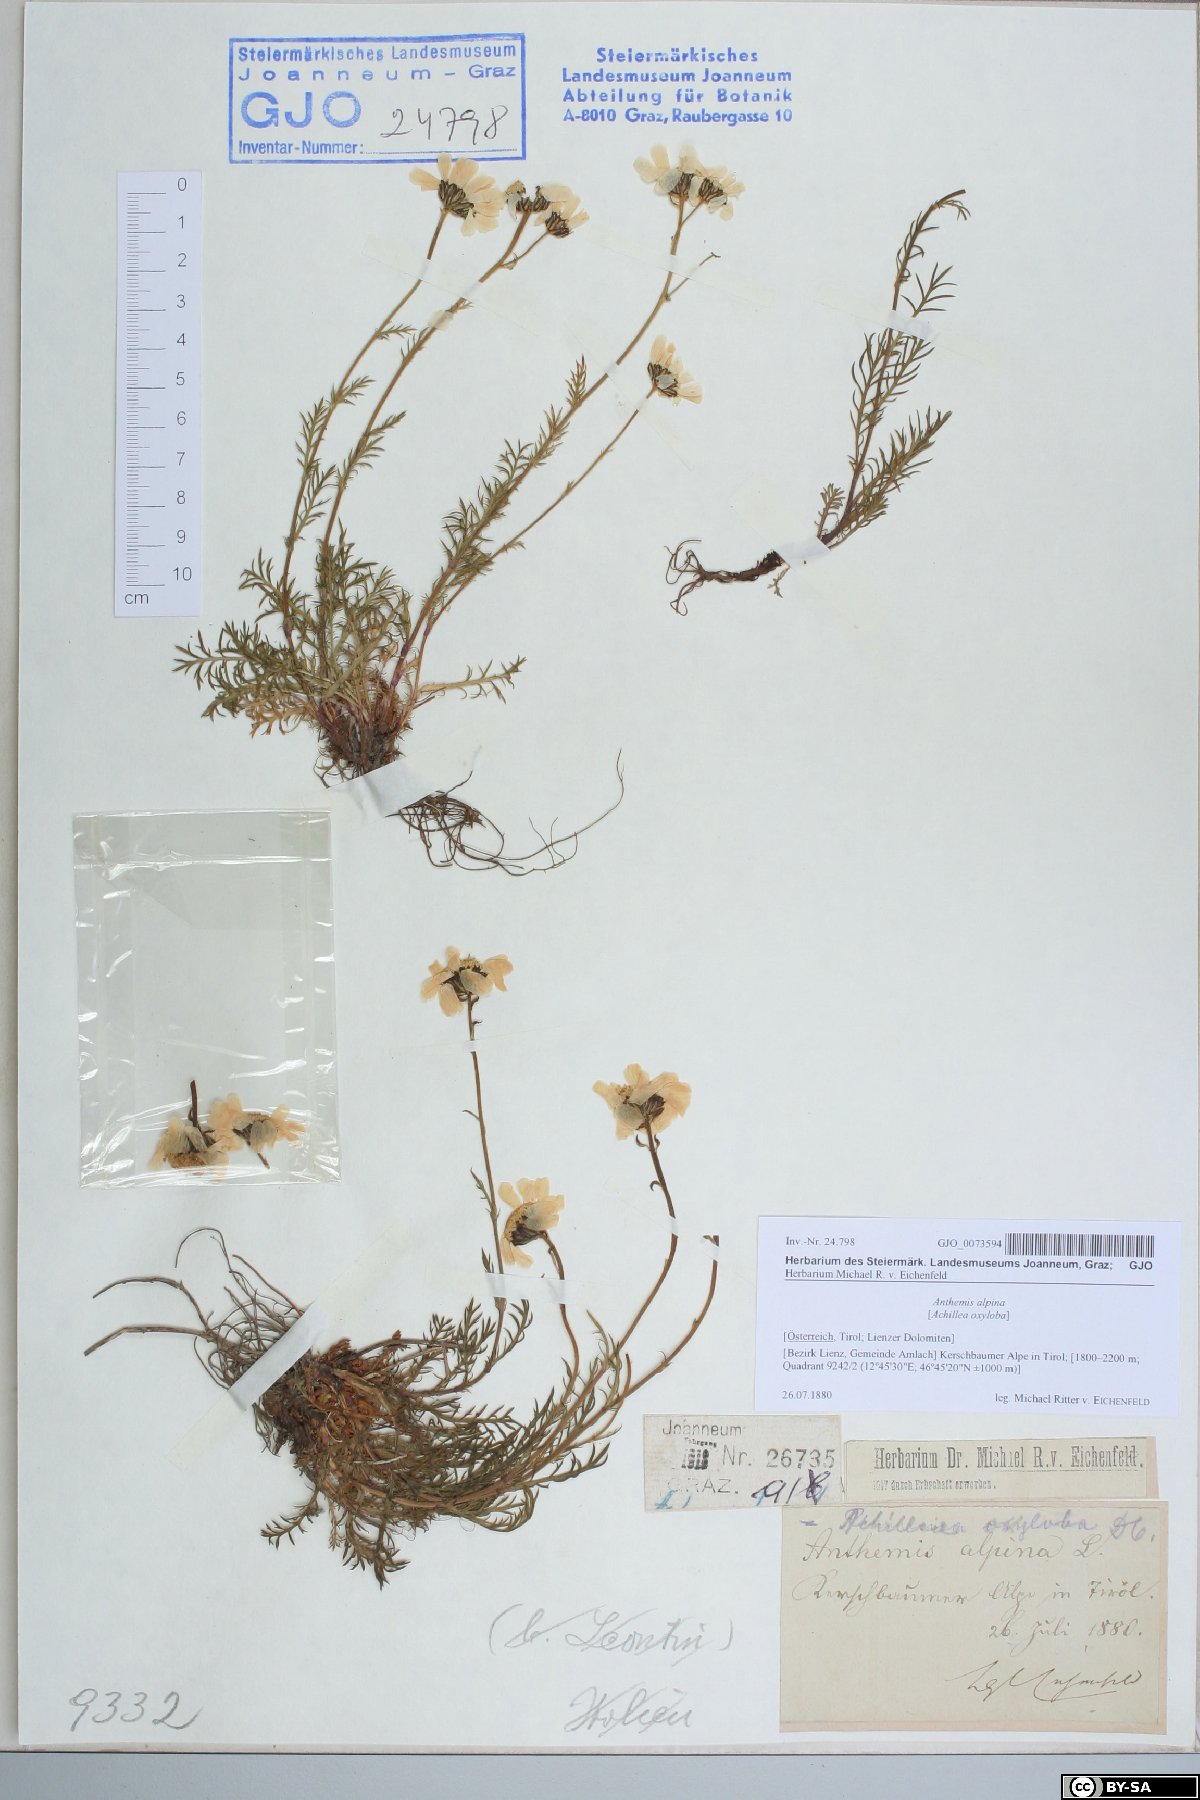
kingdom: Plantae
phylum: Tracheophyta
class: Magnoliopsida
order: Asterales
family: Asteraceae
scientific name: Asteraceae
